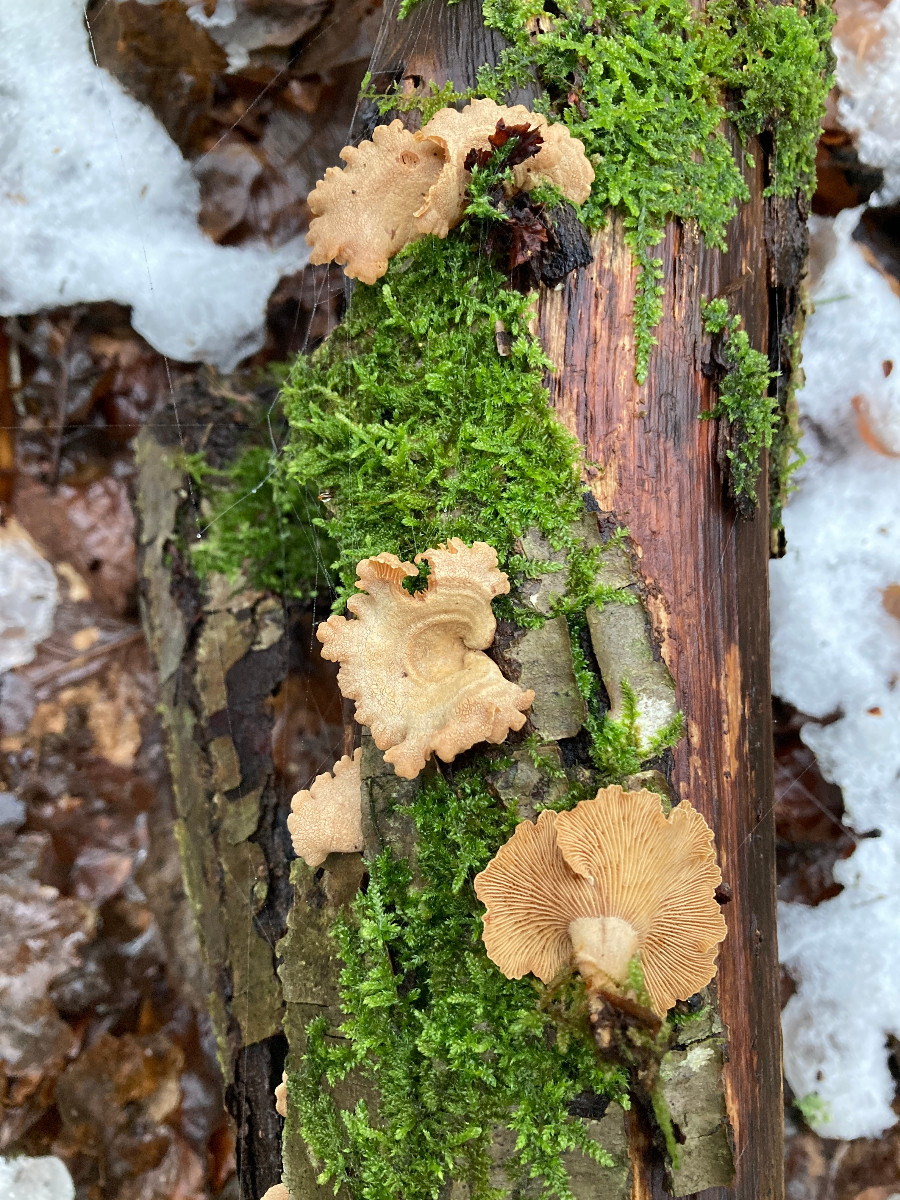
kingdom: Fungi
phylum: Basidiomycota
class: Agaricomycetes
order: Agaricales
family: Mycenaceae
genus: Panellus
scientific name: Panellus stipticus
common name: kliddet epaulethat
